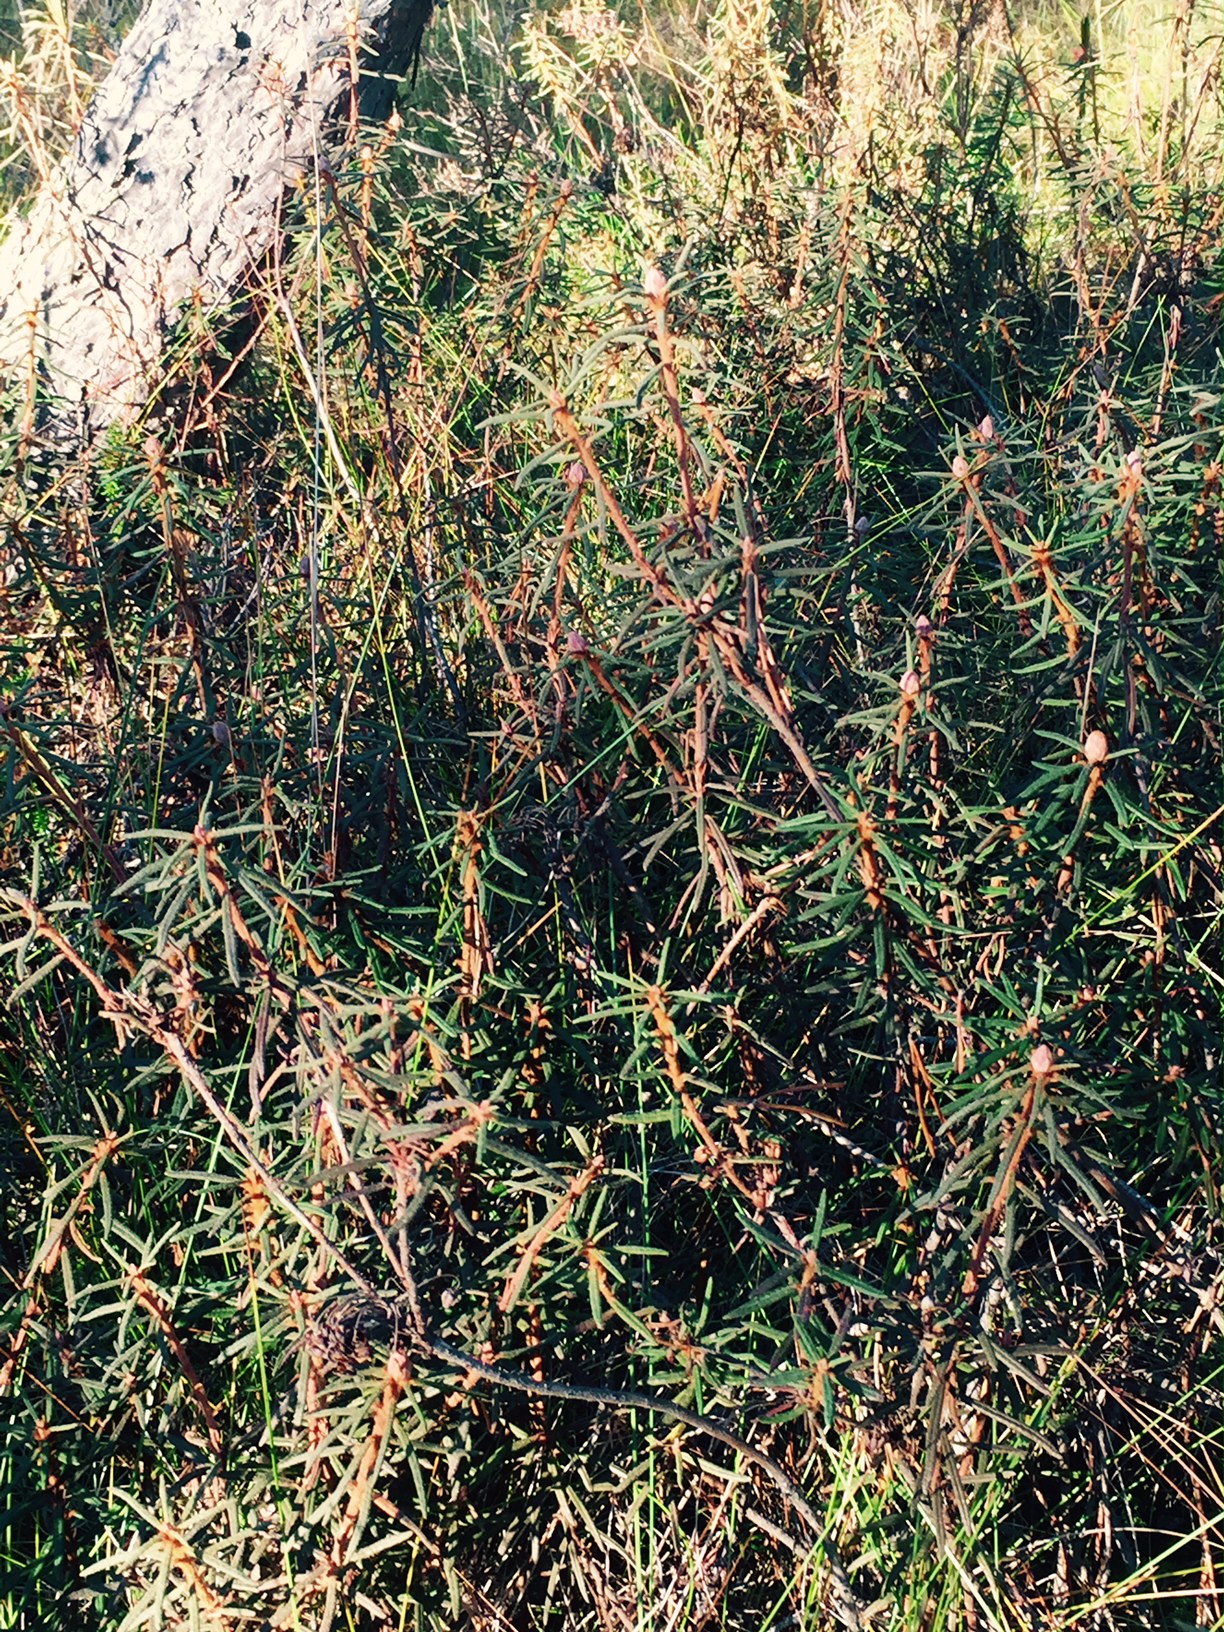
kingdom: Plantae
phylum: Tracheophyta
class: Magnoliopsida
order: Ericales
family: Ericaceae
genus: Rhododendron
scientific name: Rhododendron tomentosum
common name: Marsh labrador tea
